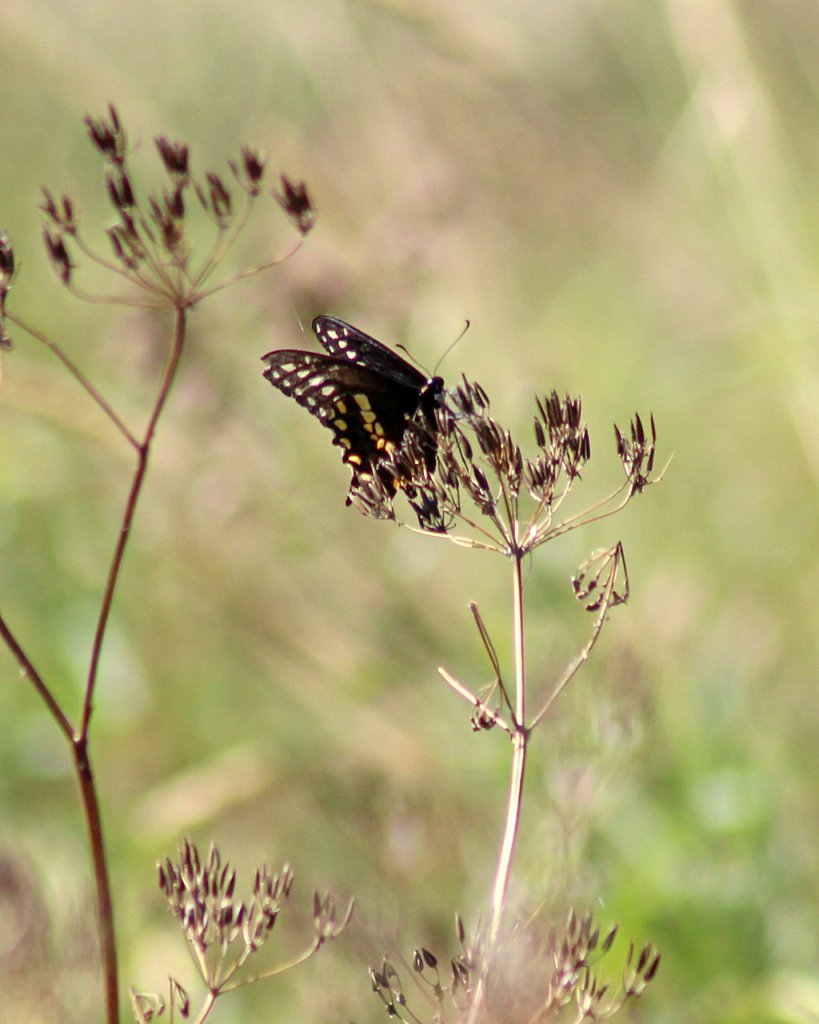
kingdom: Animalia
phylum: Arthropoda
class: Insecta
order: Lepidoptera
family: Papilionidae
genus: Papilio
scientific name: Papilio polyxenes
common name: Black Swallowtail
